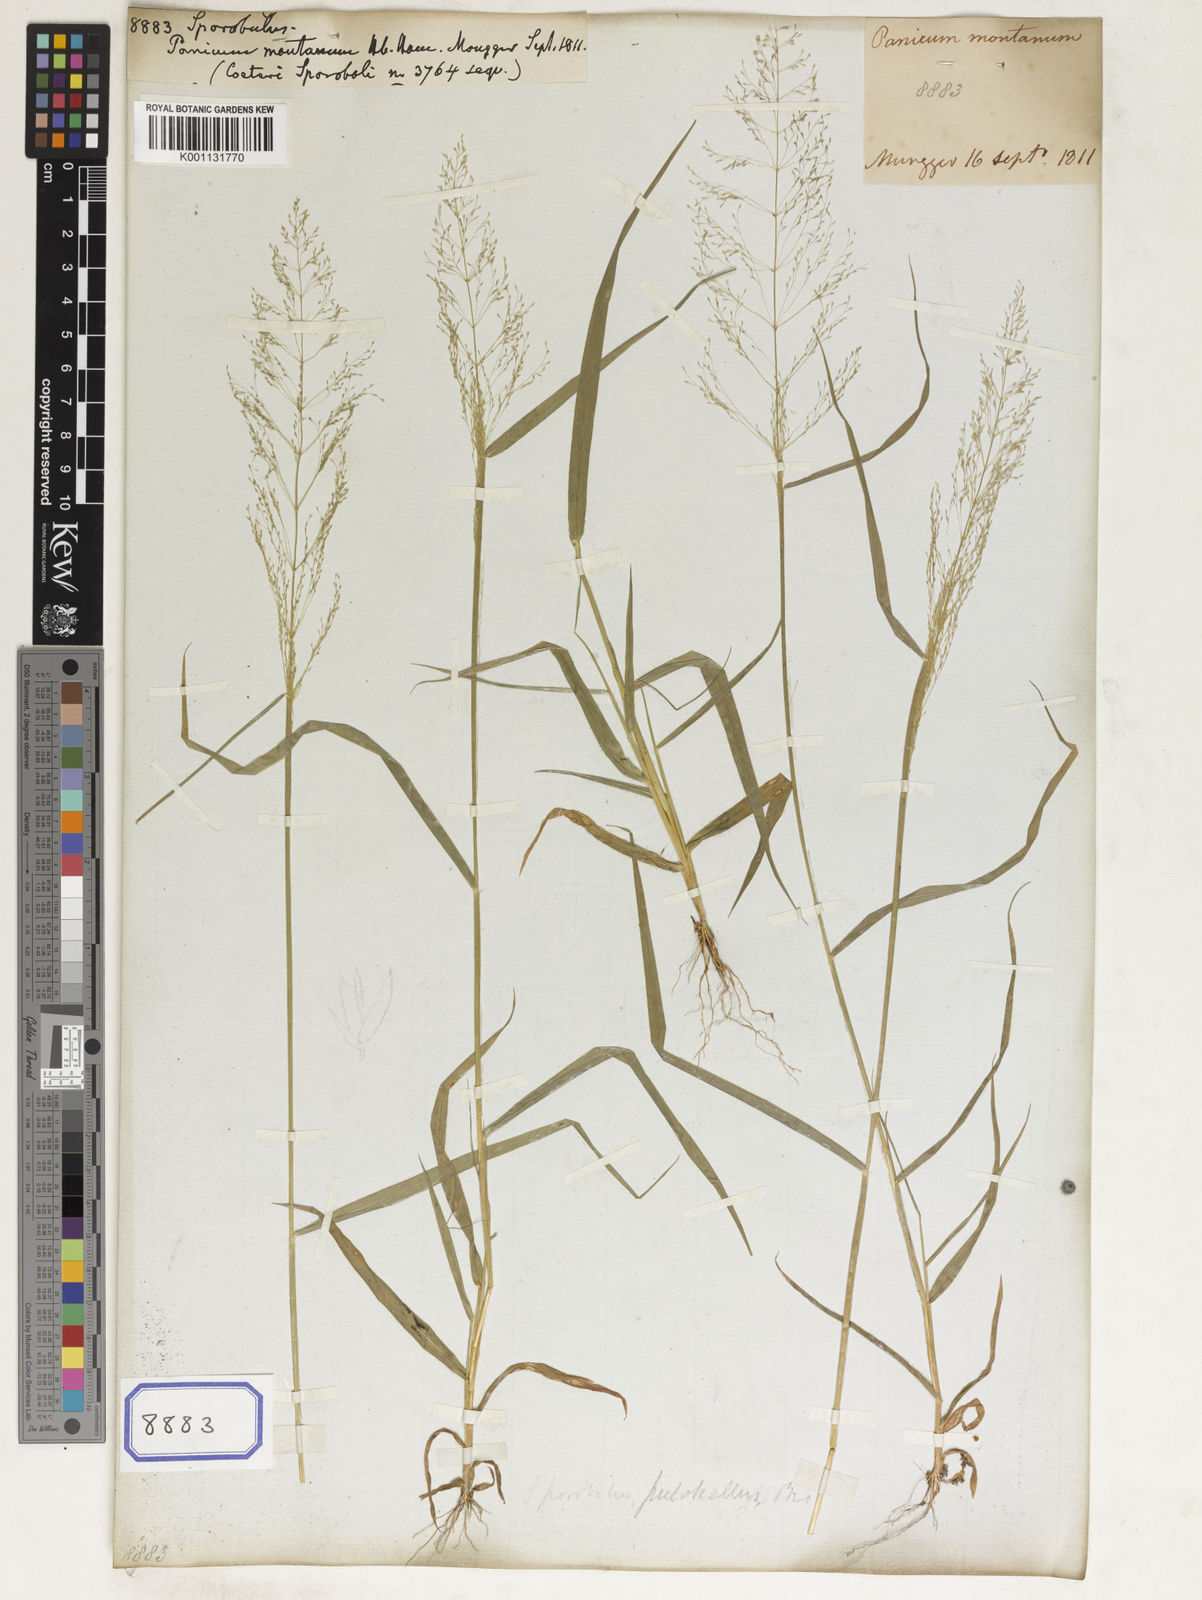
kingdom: Plantae
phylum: Tracheophyta
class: Liliopsida
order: Poales
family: Poaceae
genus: Sporobolus
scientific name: Sporobolus
